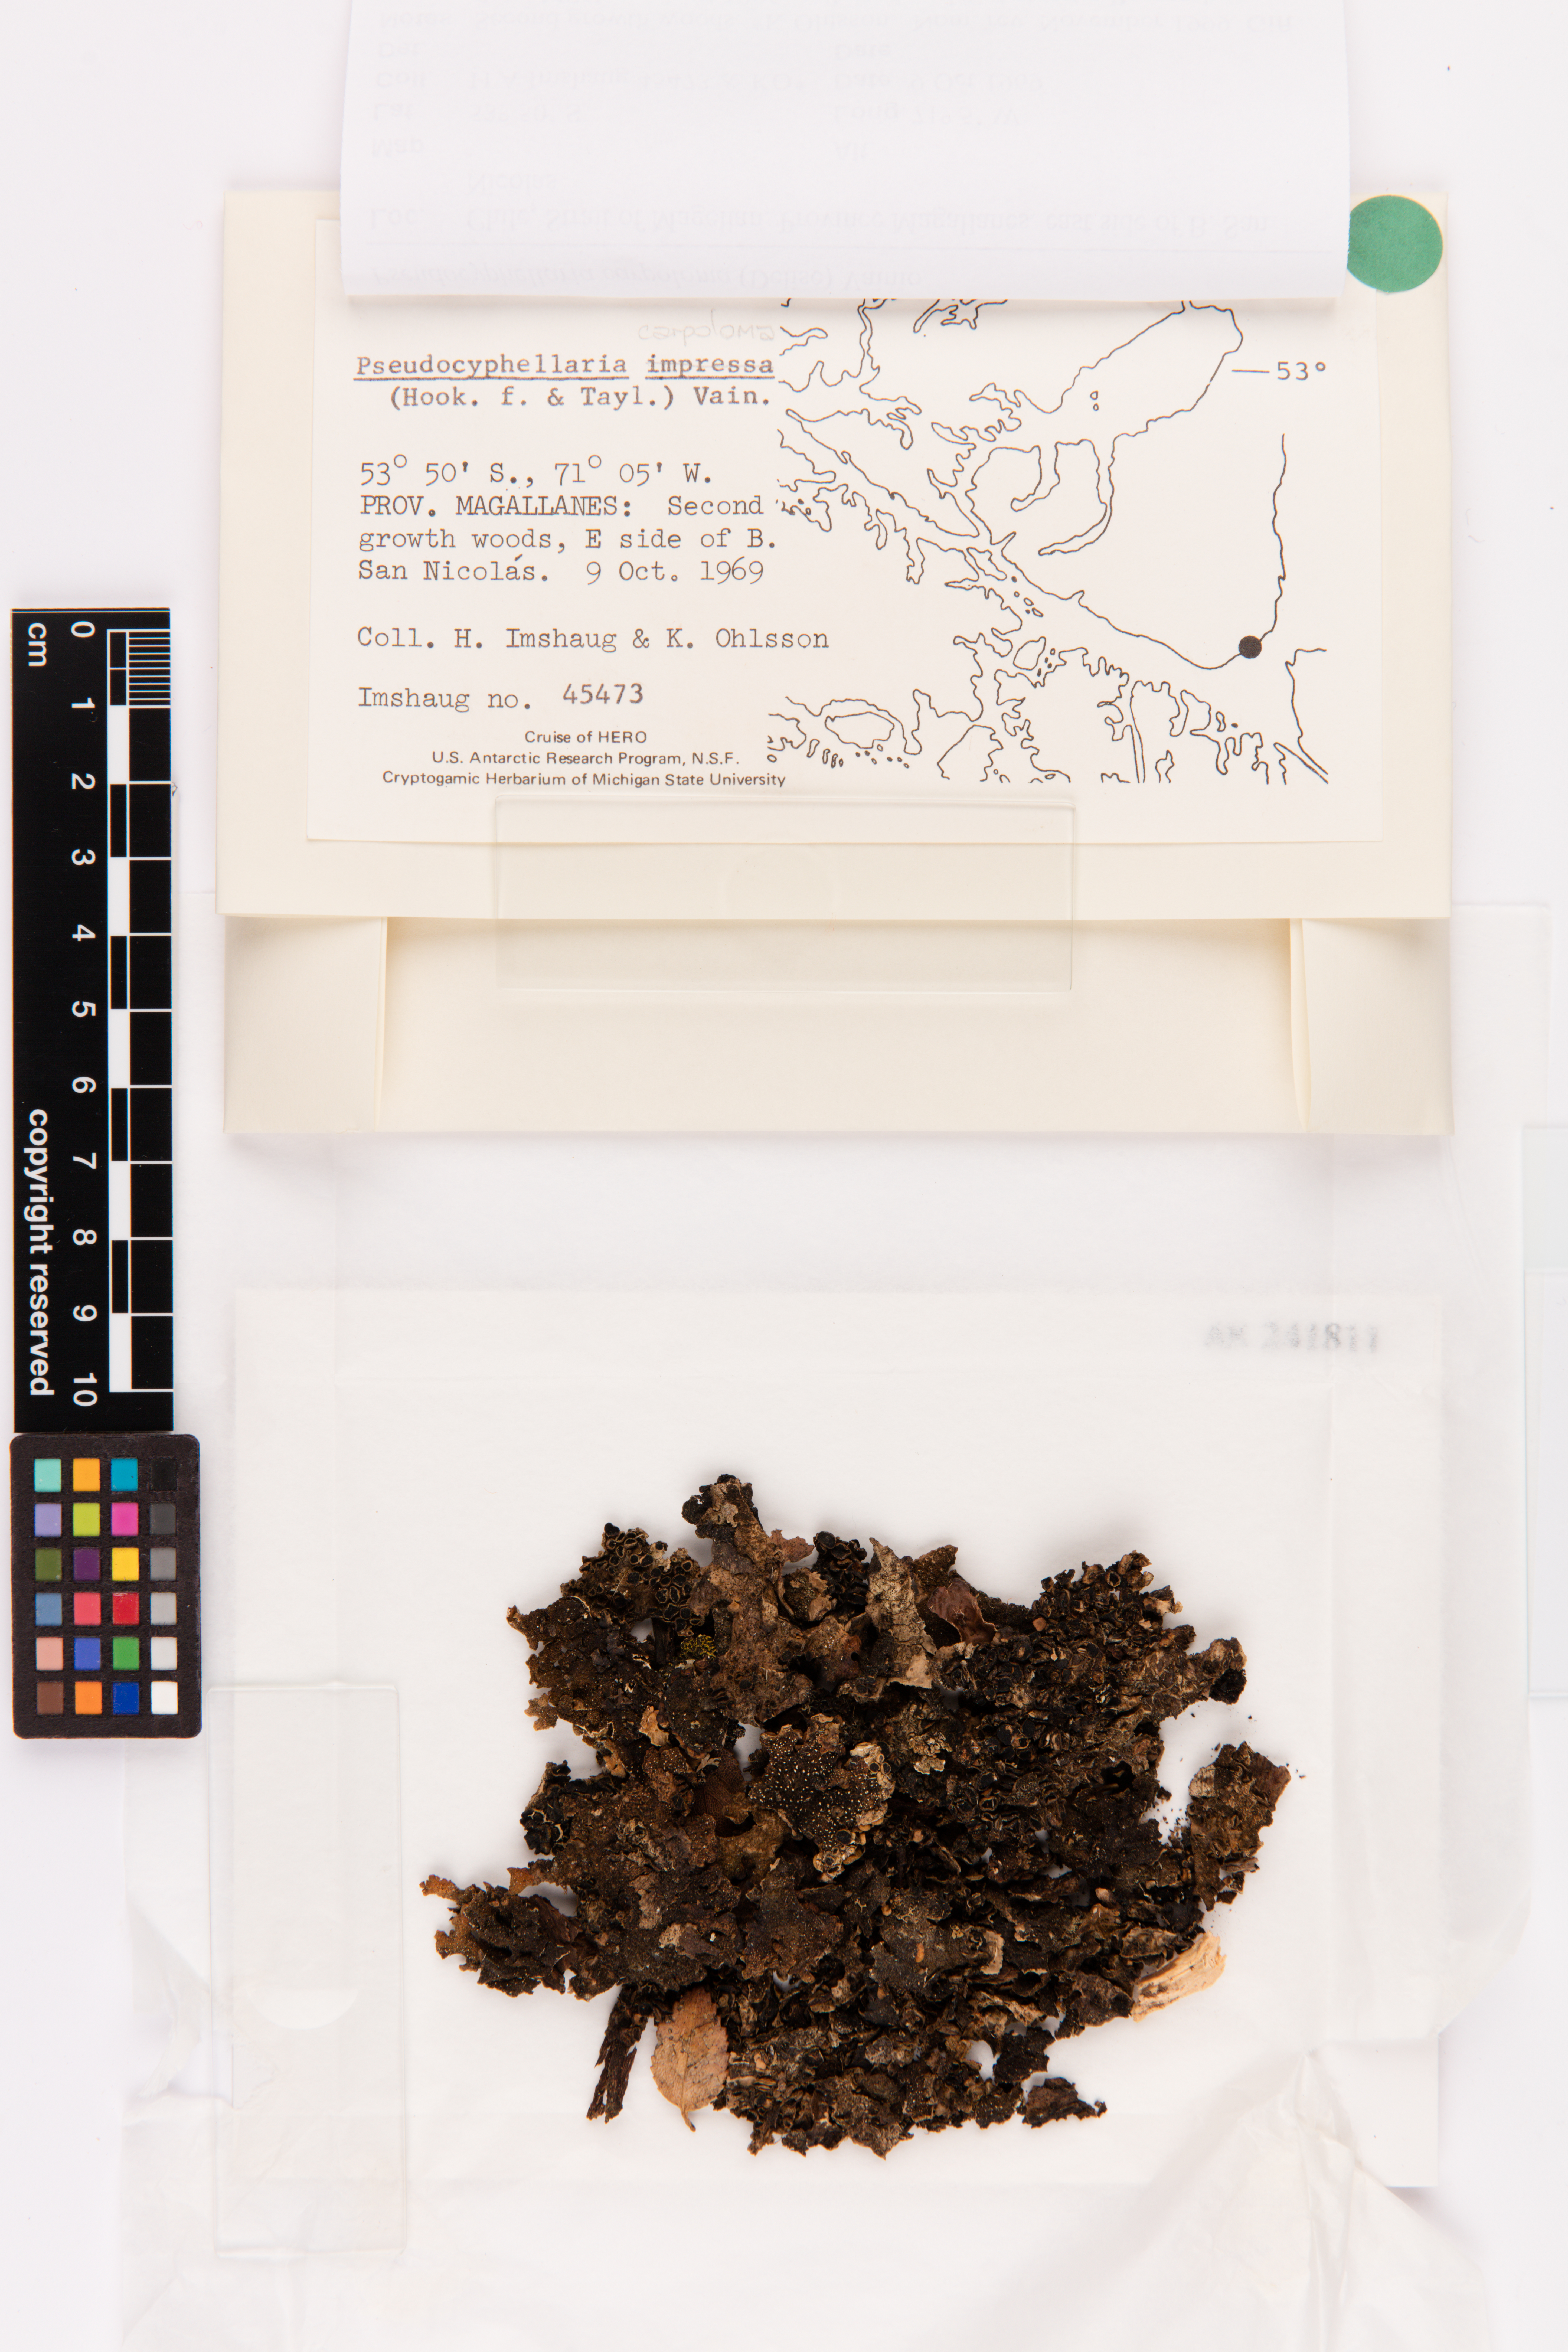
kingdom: Fungi
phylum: Ascomycota
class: Lecanoromycetes
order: Peltigerales
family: Lobariaceae
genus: Pseudocyphellaria
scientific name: Pseudocyphellaria carpoloma
